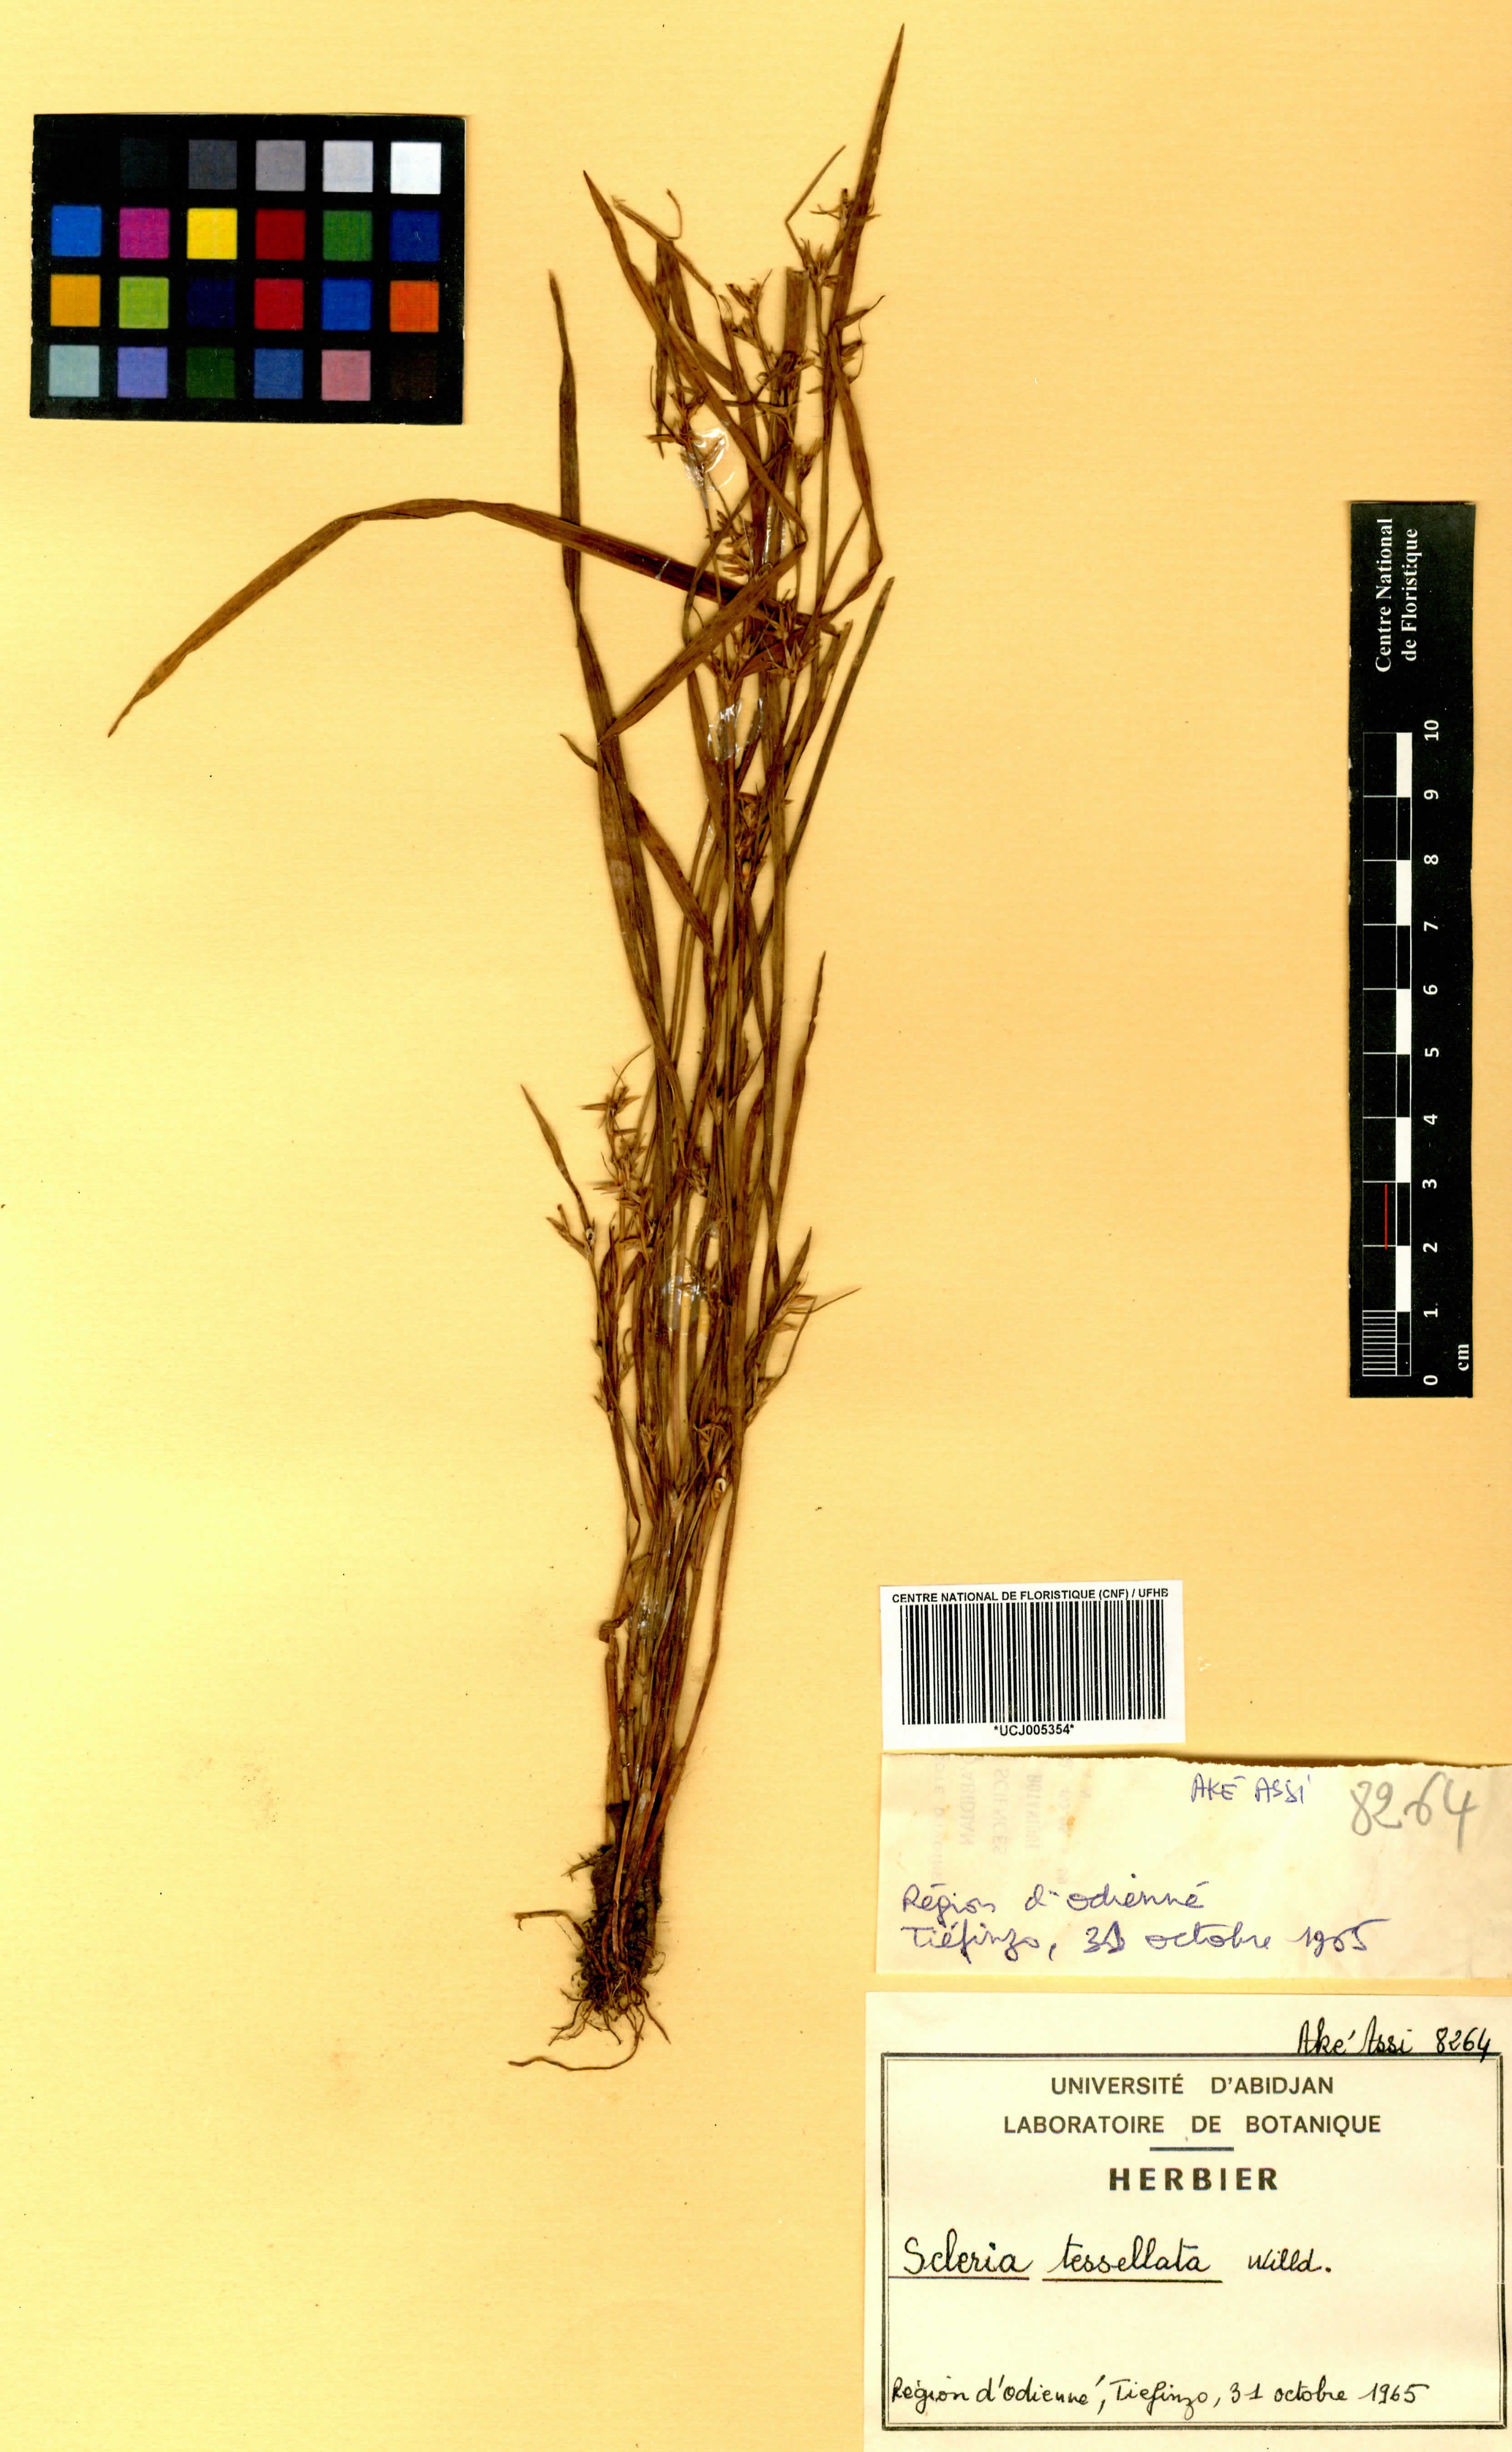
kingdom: Plantae
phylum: Tracheophyta
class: Liliopsida
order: Poales
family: Cyperaceae
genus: Scleria
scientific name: Scleria tessellata
